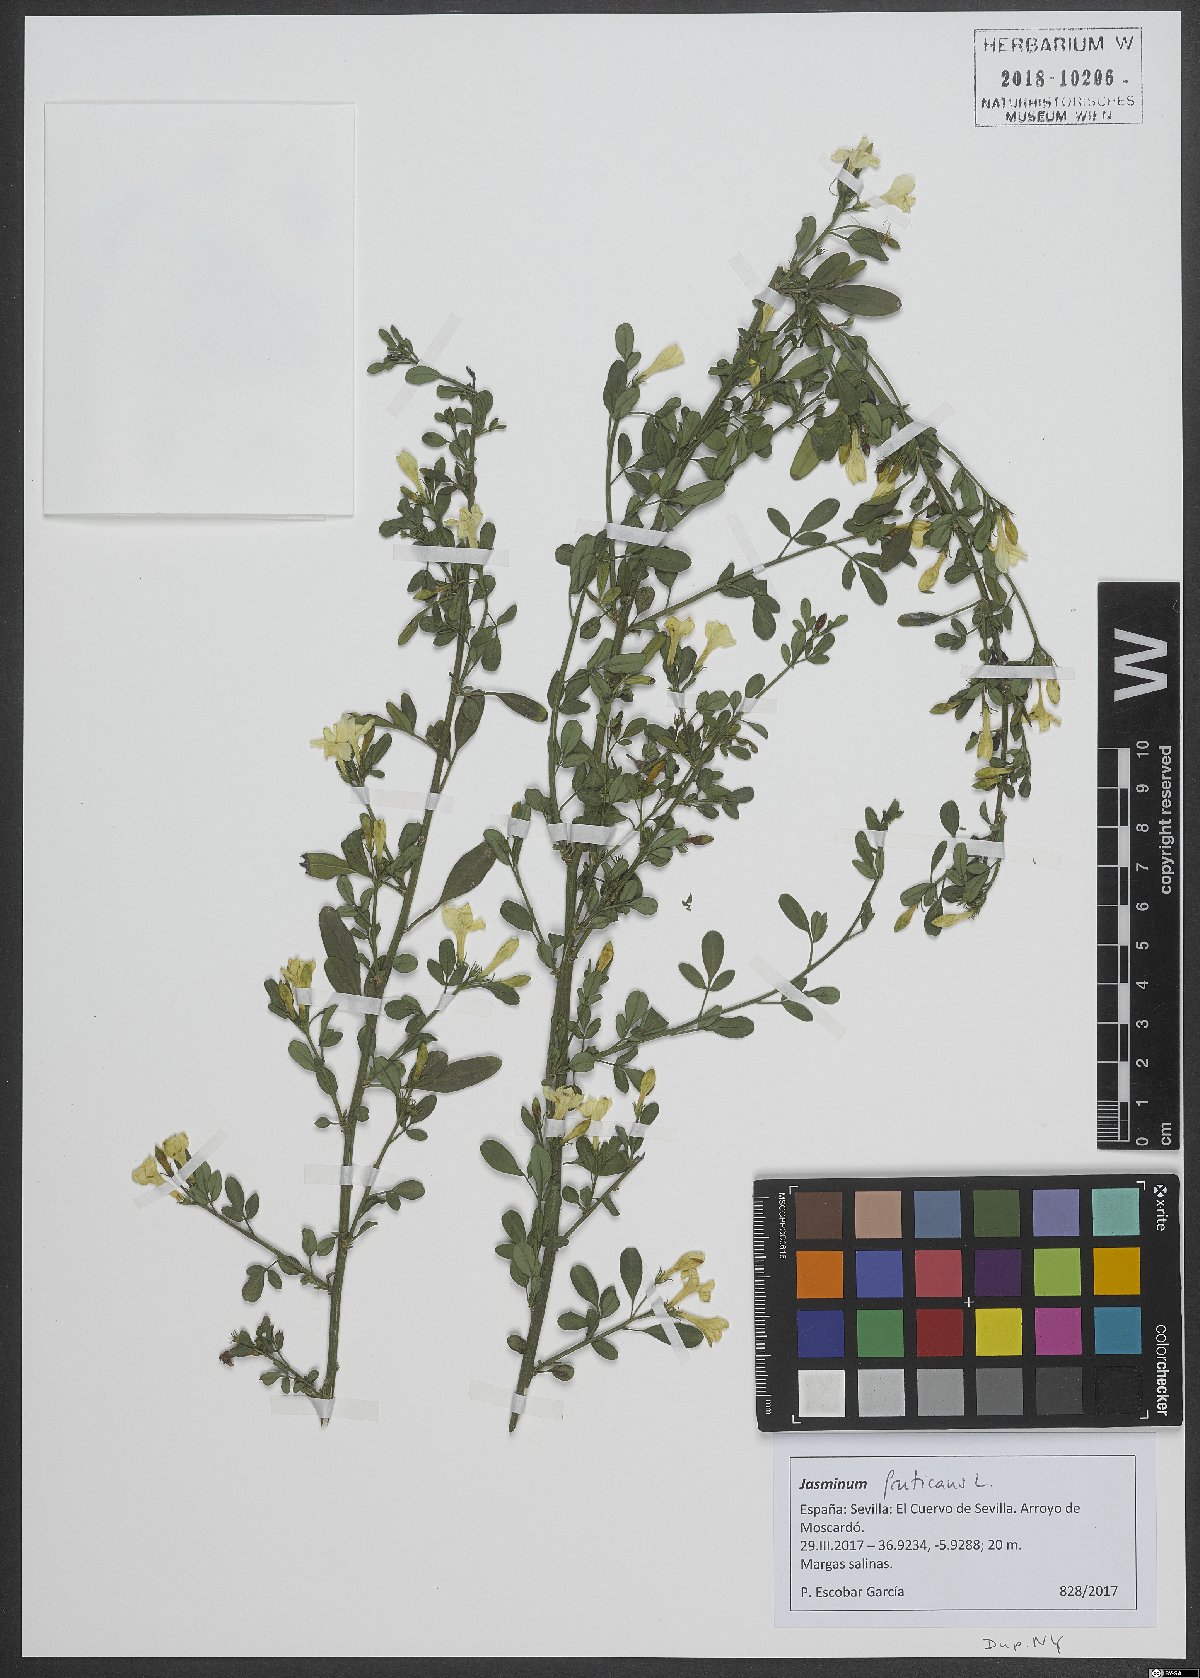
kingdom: Plantae
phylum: Tracheophyta
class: Magnoliopsida
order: Lamiales
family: Oleaceae
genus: Chrysojasminum
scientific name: Chrysojasminum fruticans
